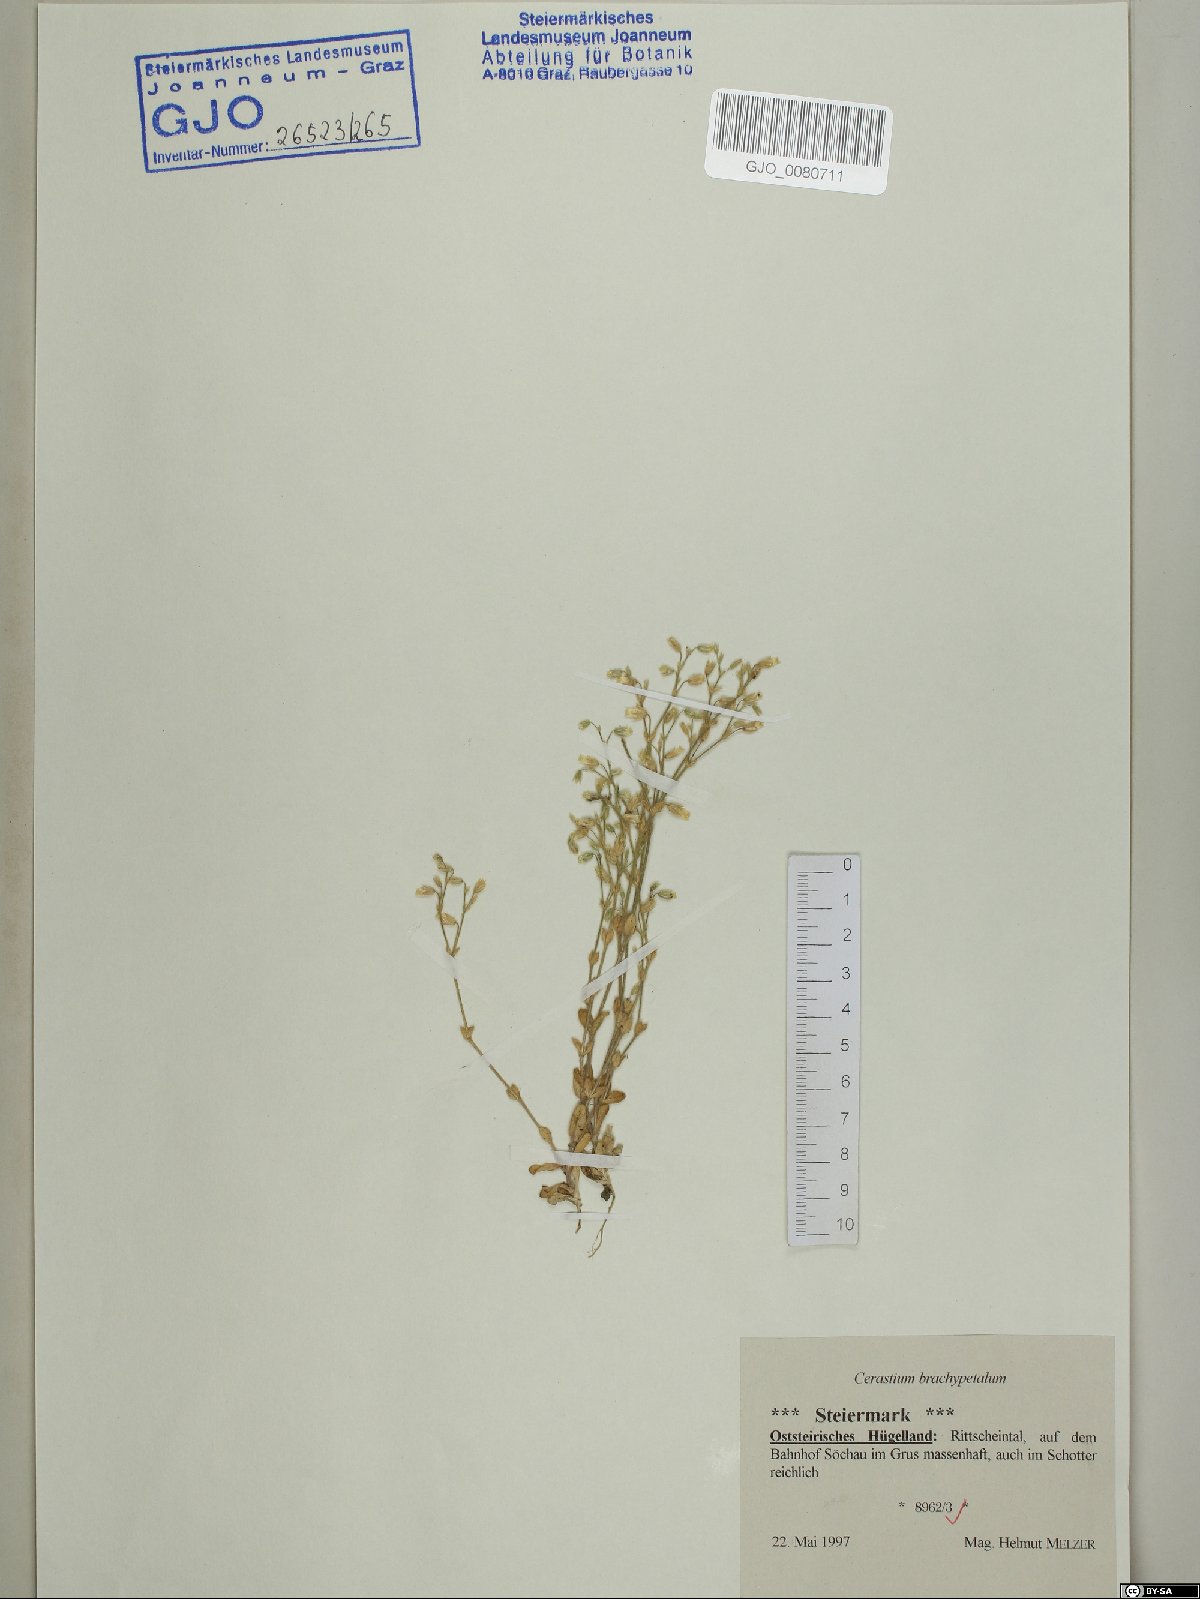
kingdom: Plantae
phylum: Tracheophyta
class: Magnoliopsida
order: Caryophyllales
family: Caryophyllaceae
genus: Cerastium
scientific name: Cerastium brachypetalum
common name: Grey mouse-ear
